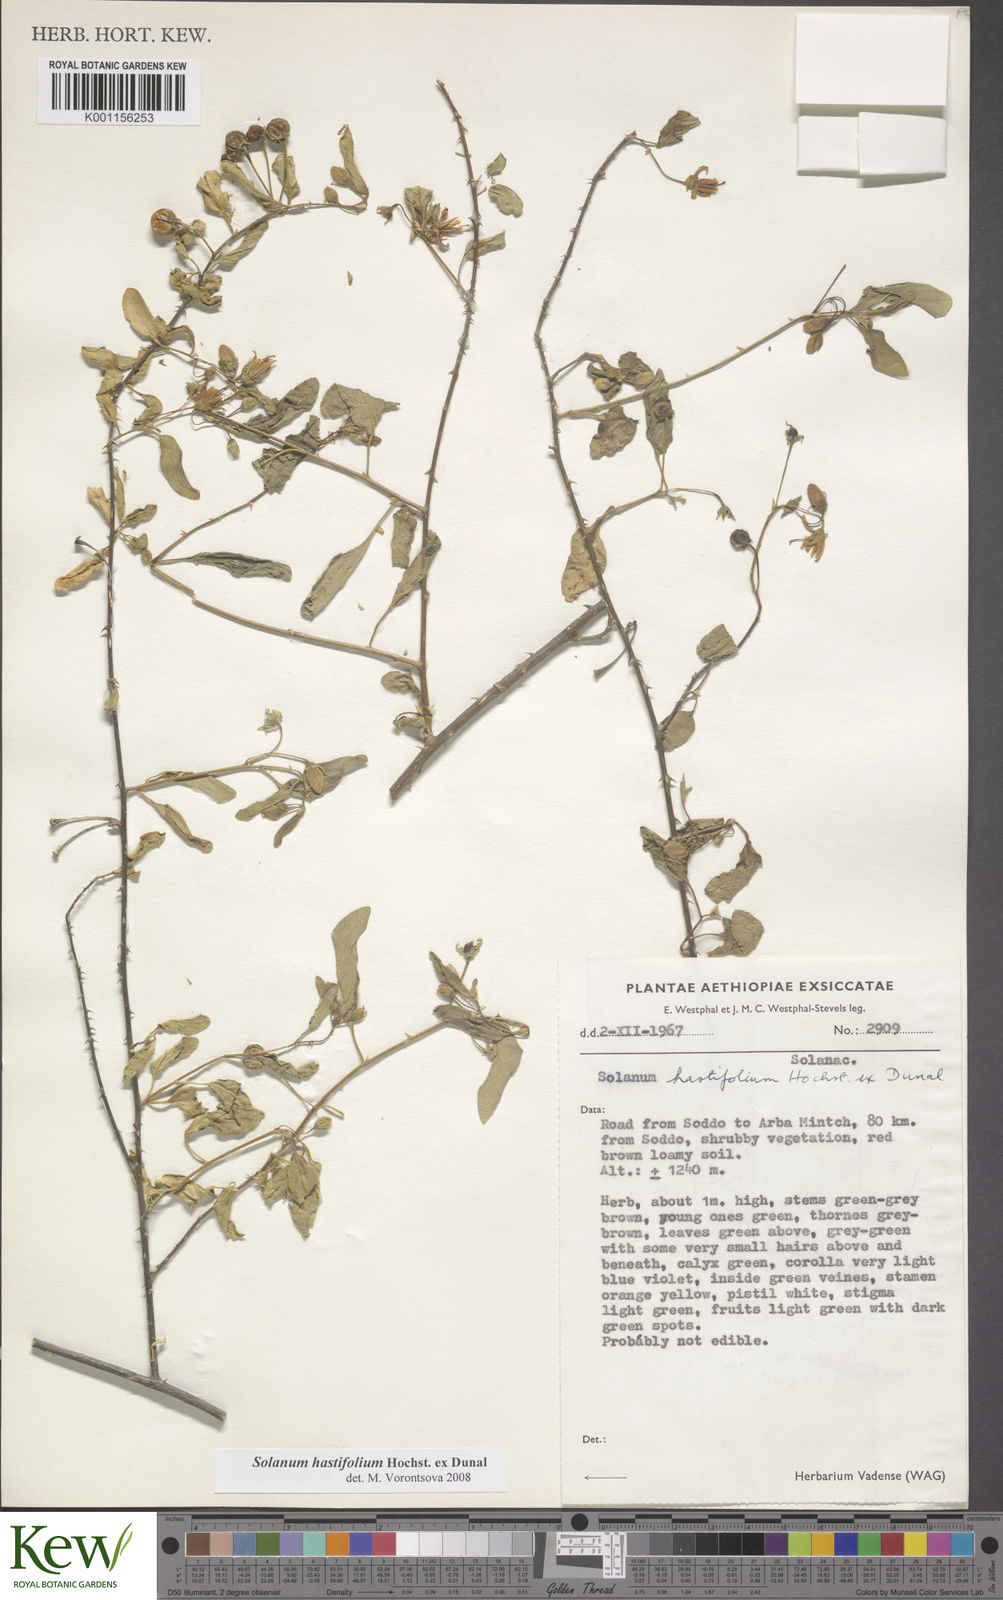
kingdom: Plantae
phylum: Tracheophyta
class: Magnoliopsida
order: Solanales
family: Solanaceae
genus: Solanum
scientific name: Solanum hastifolium
